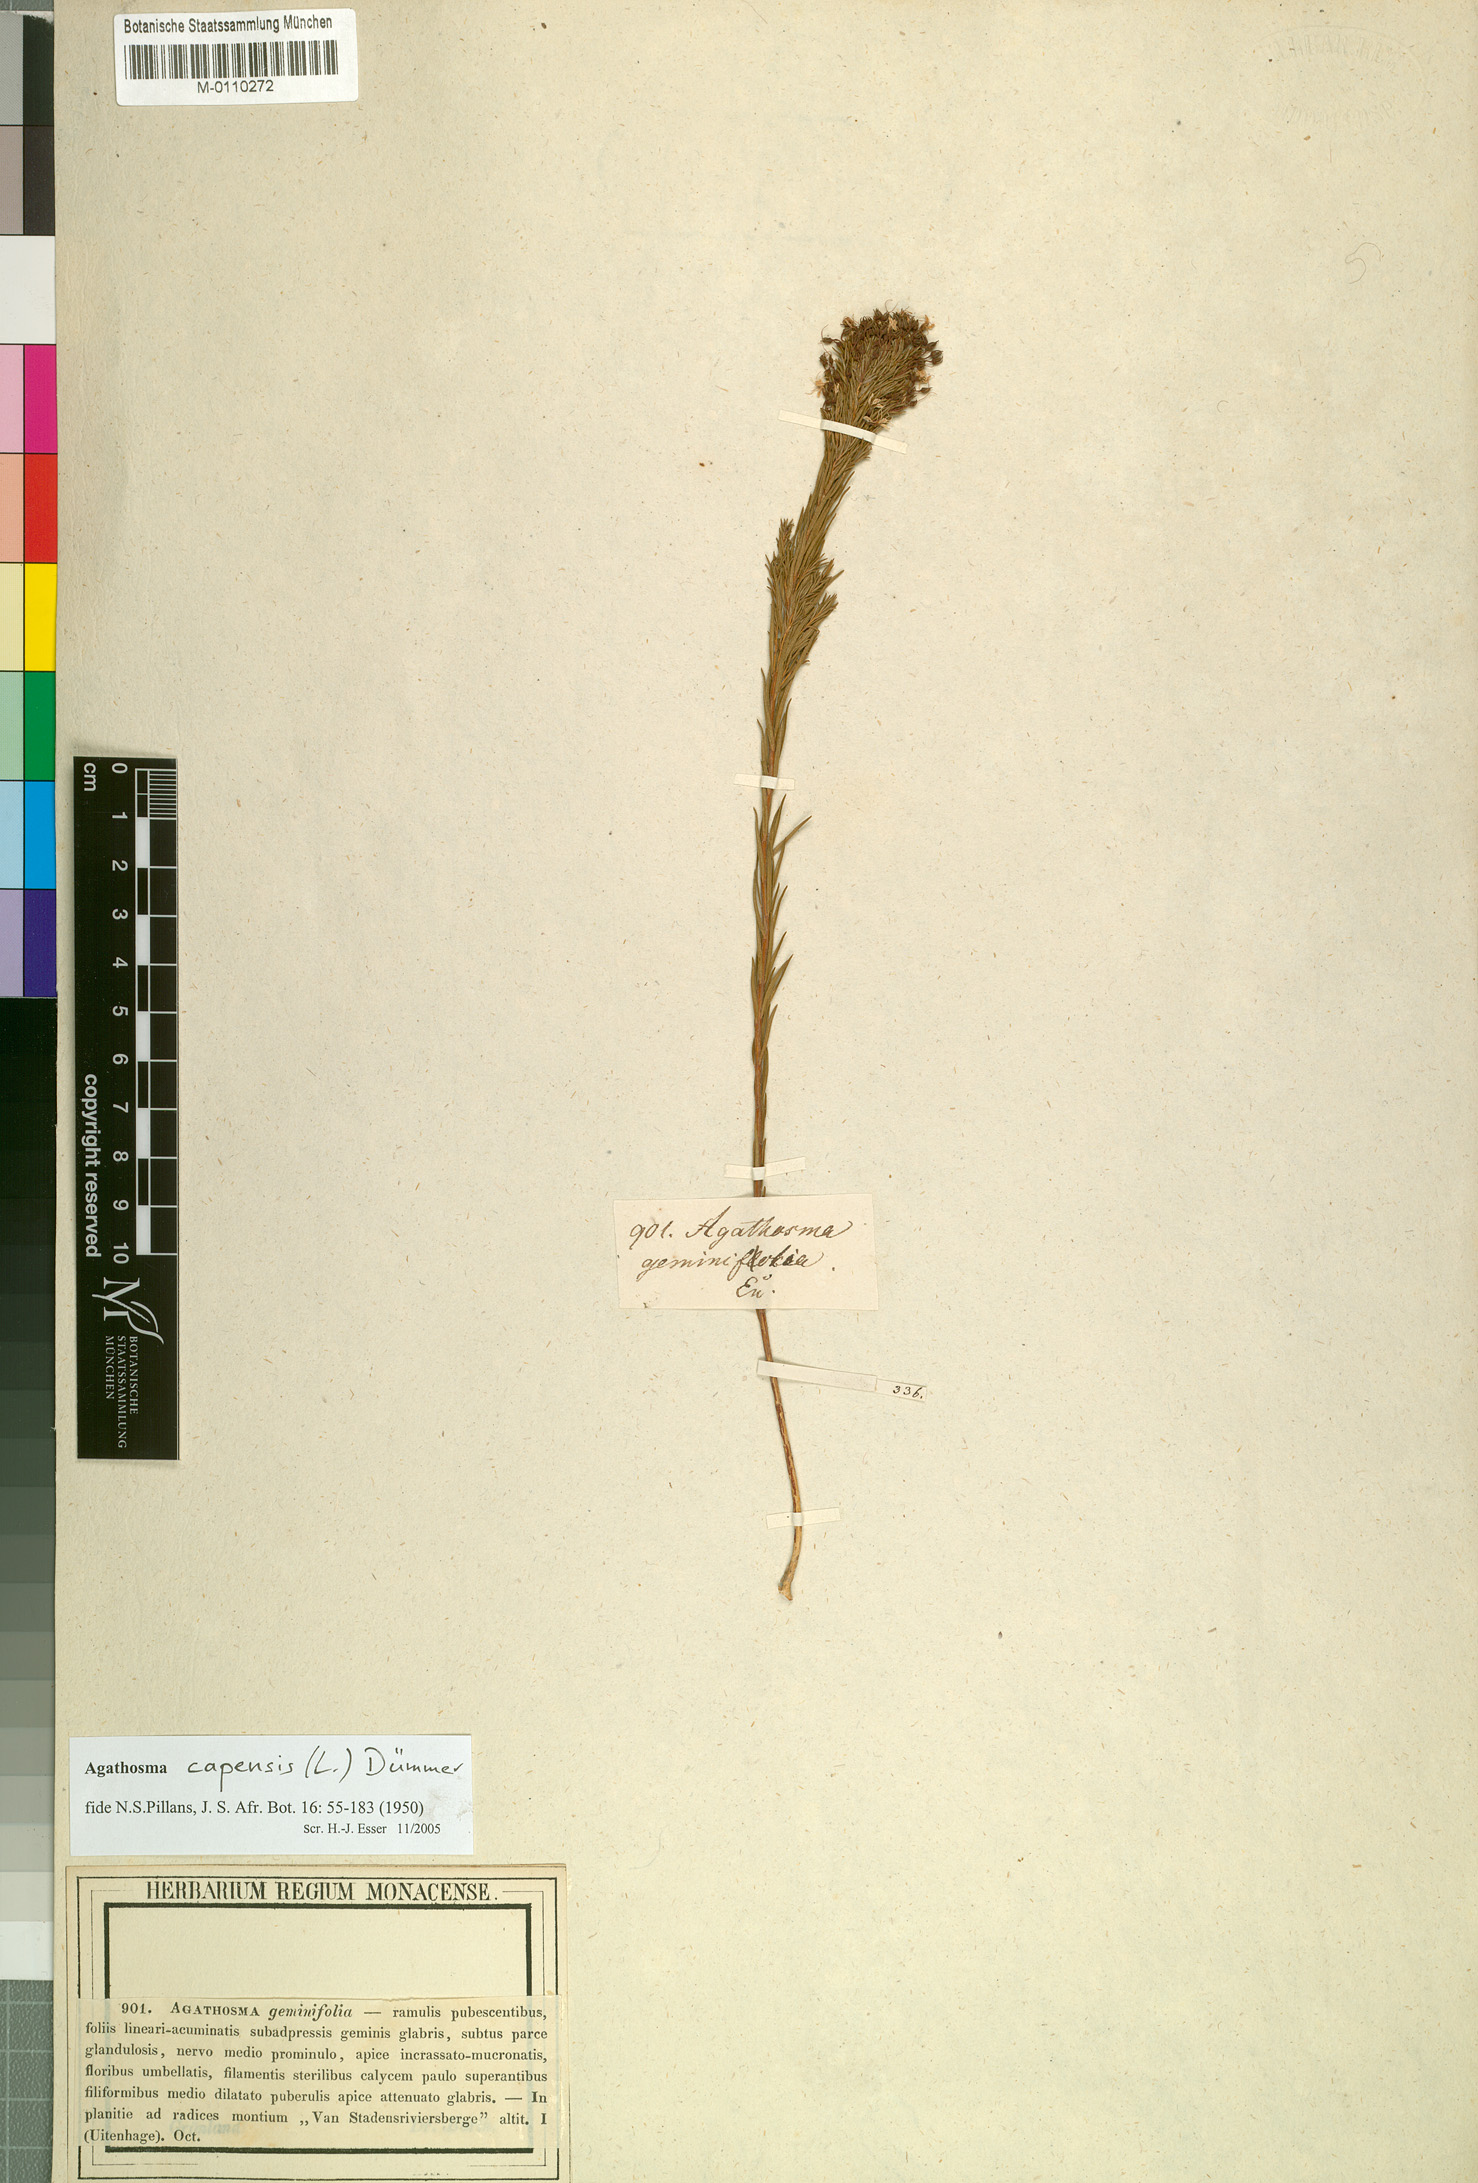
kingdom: Plantae
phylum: Tracheophyta
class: Magnoliopsida
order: Sapindales
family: Rutaceae
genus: Agathosma
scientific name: Agathosma capensis
